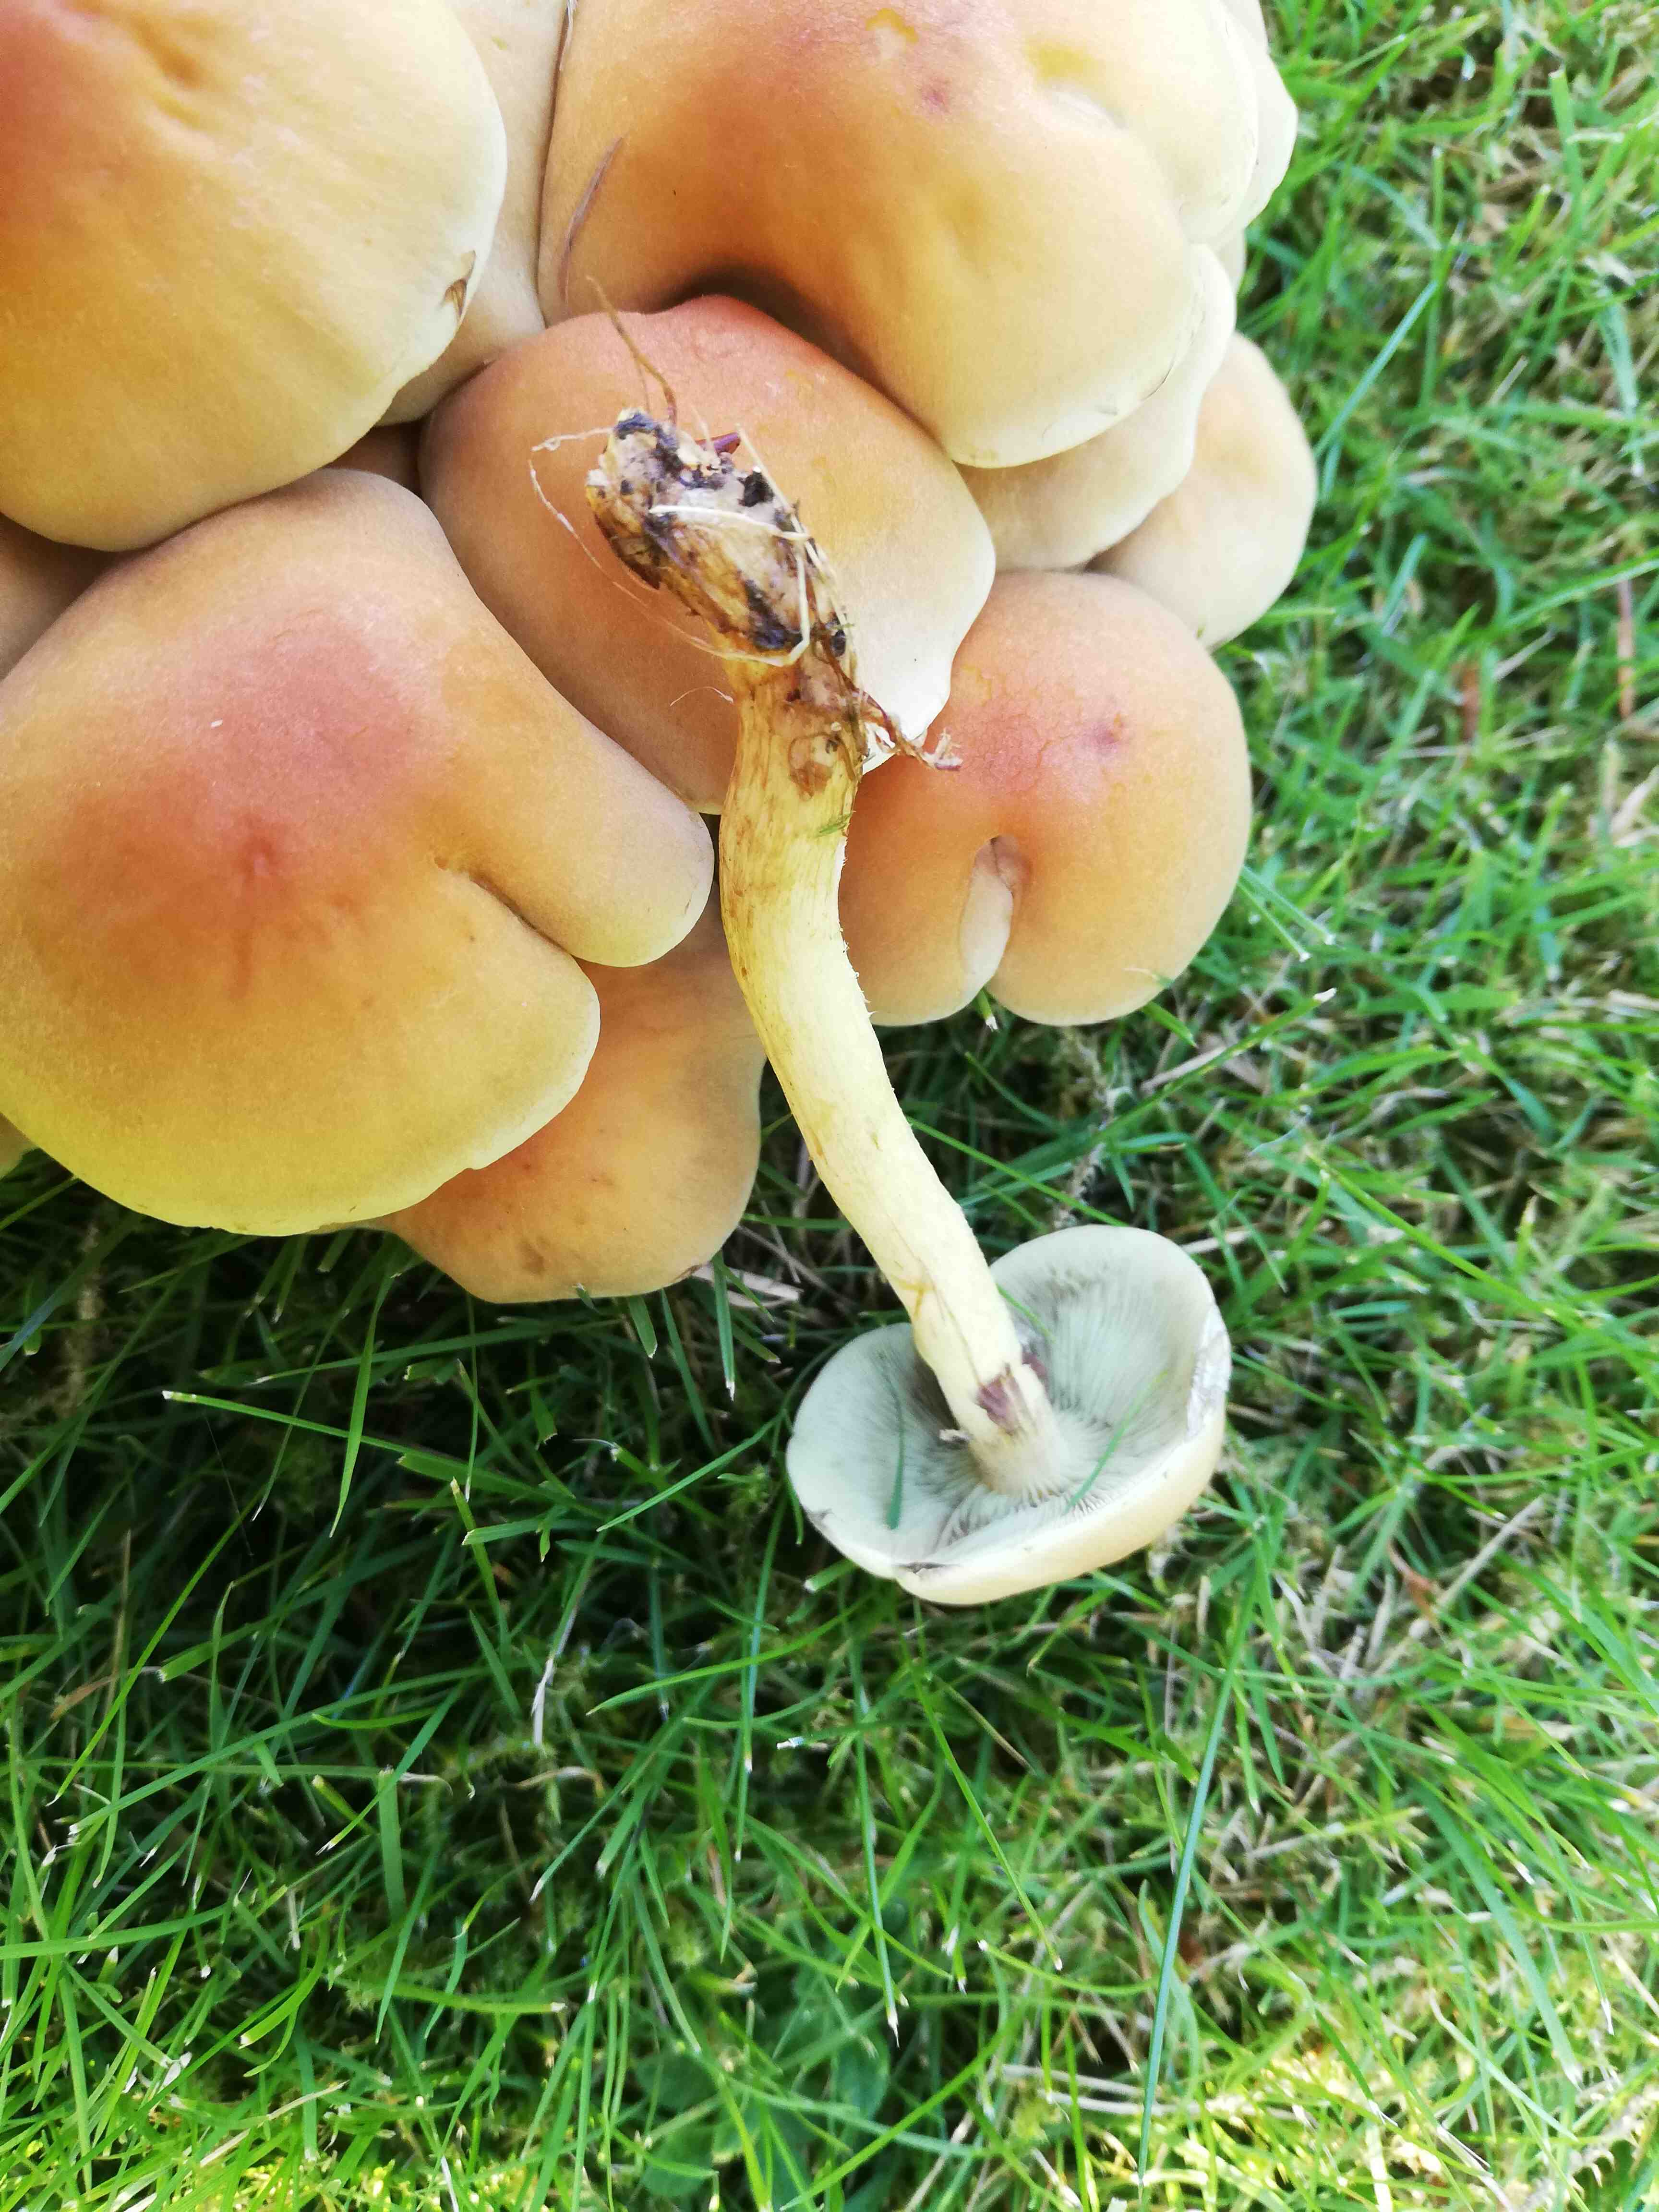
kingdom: Fungi
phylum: Basidiomycota
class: Agaricomycetes
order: Agaricales
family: Strophariaceae
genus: Hypholoma
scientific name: Hypholoma fasciculare
